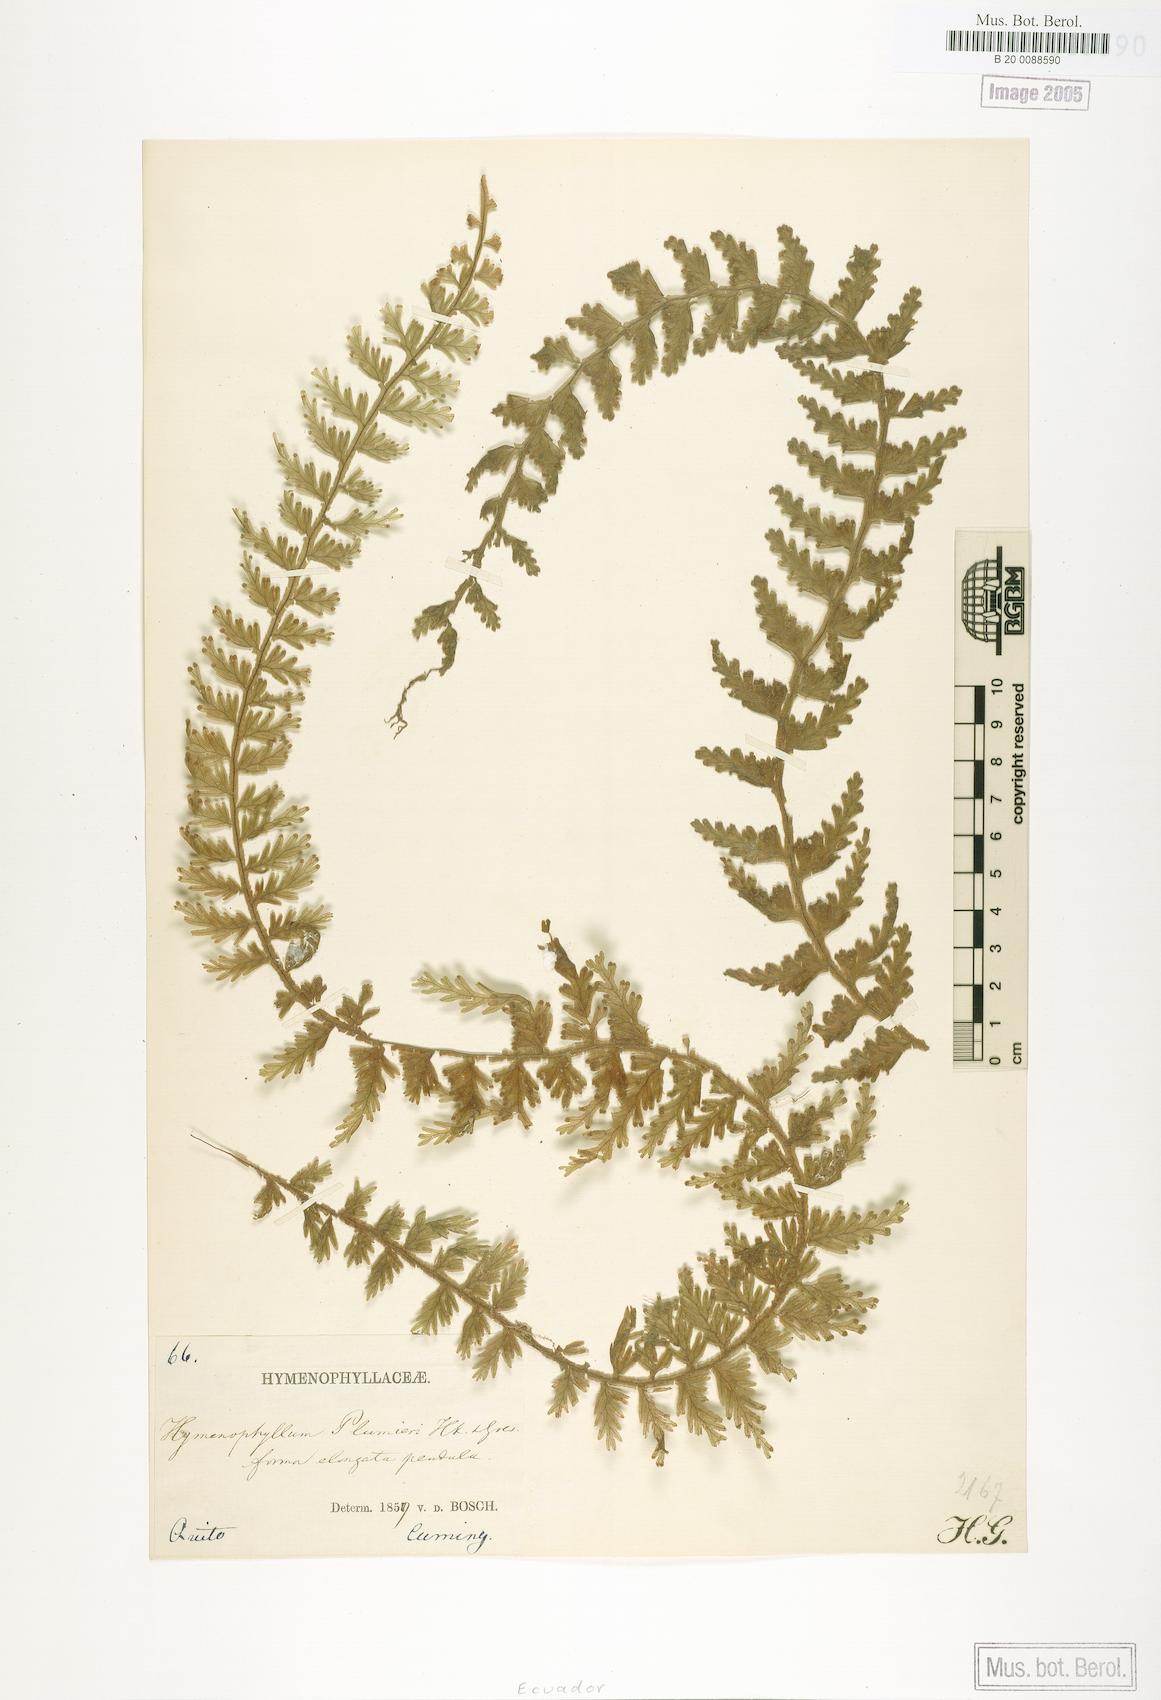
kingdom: Plantae
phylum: Tracheophyta
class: Polypodiopsida
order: Hymenophyllales
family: Hymenophyllaceae
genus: Hymenophyllum
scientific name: Hymenophyllum plumieri
